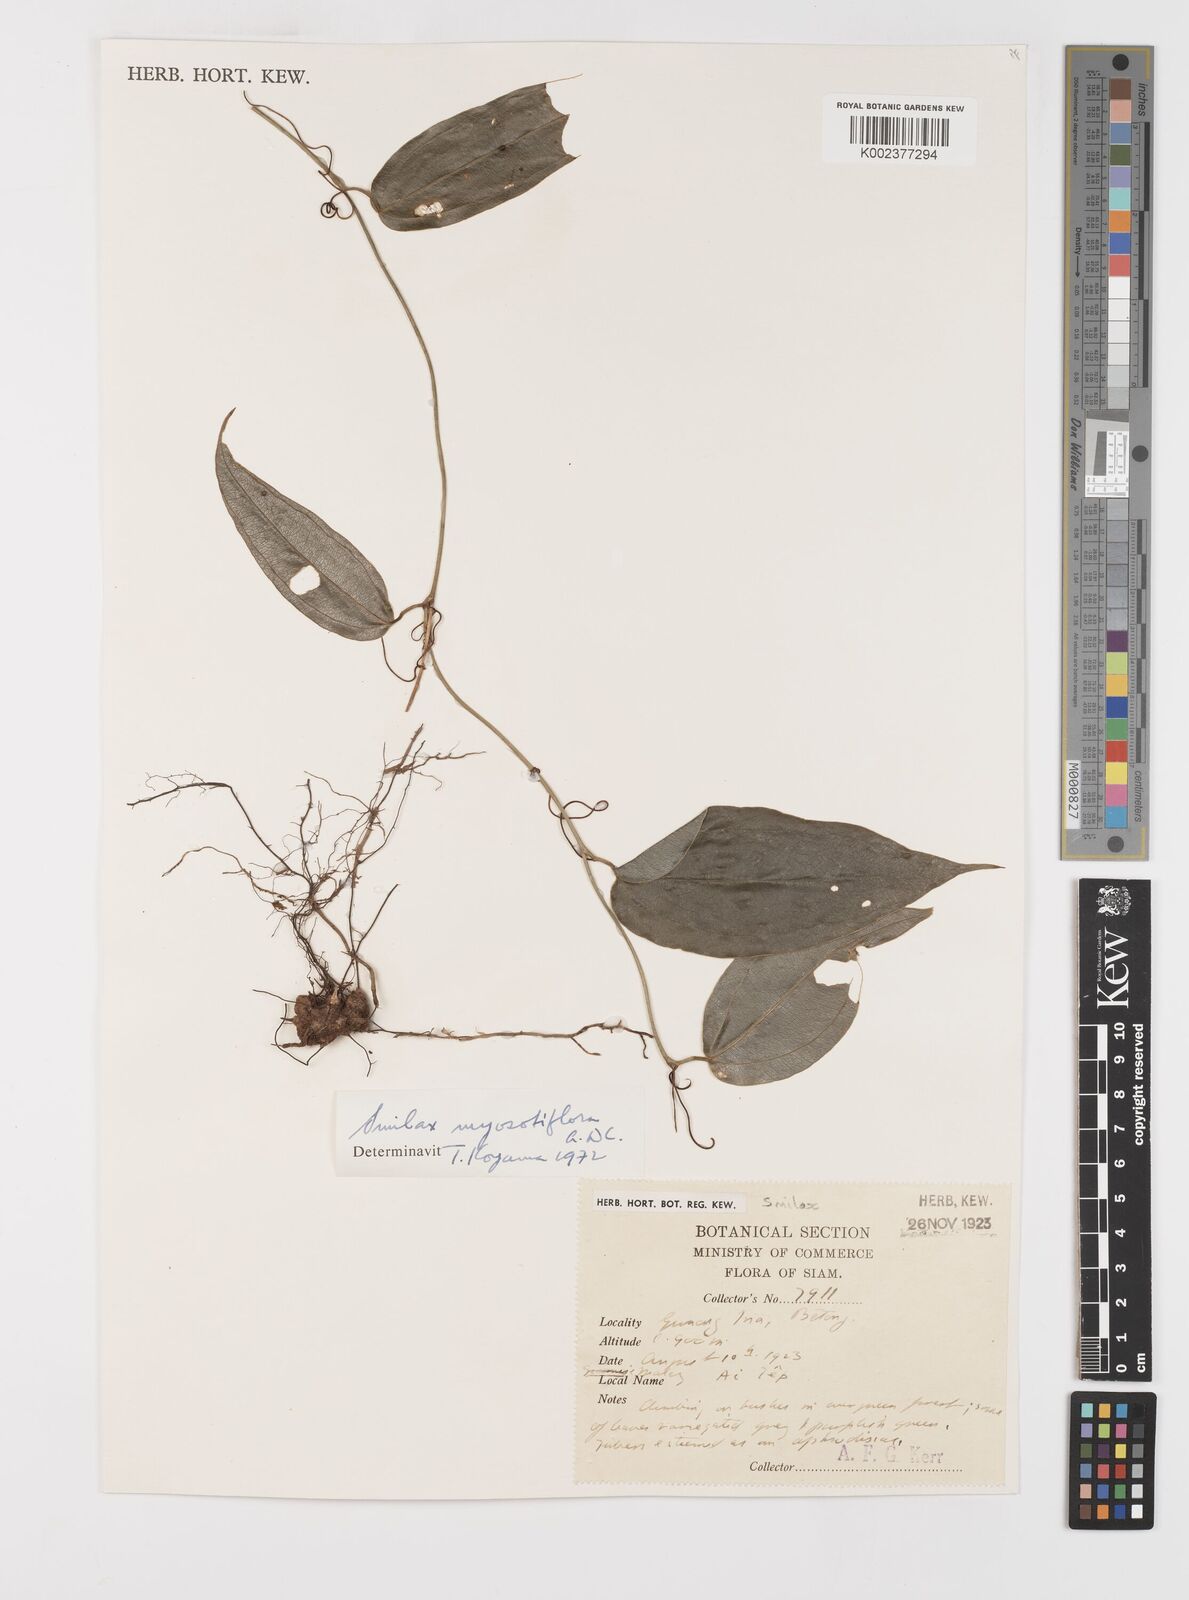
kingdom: Plantae
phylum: Tracheophyta
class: Liliopsida
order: Liliales
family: Smilacaceae
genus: Smilax
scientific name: Smilax myosotiflora
